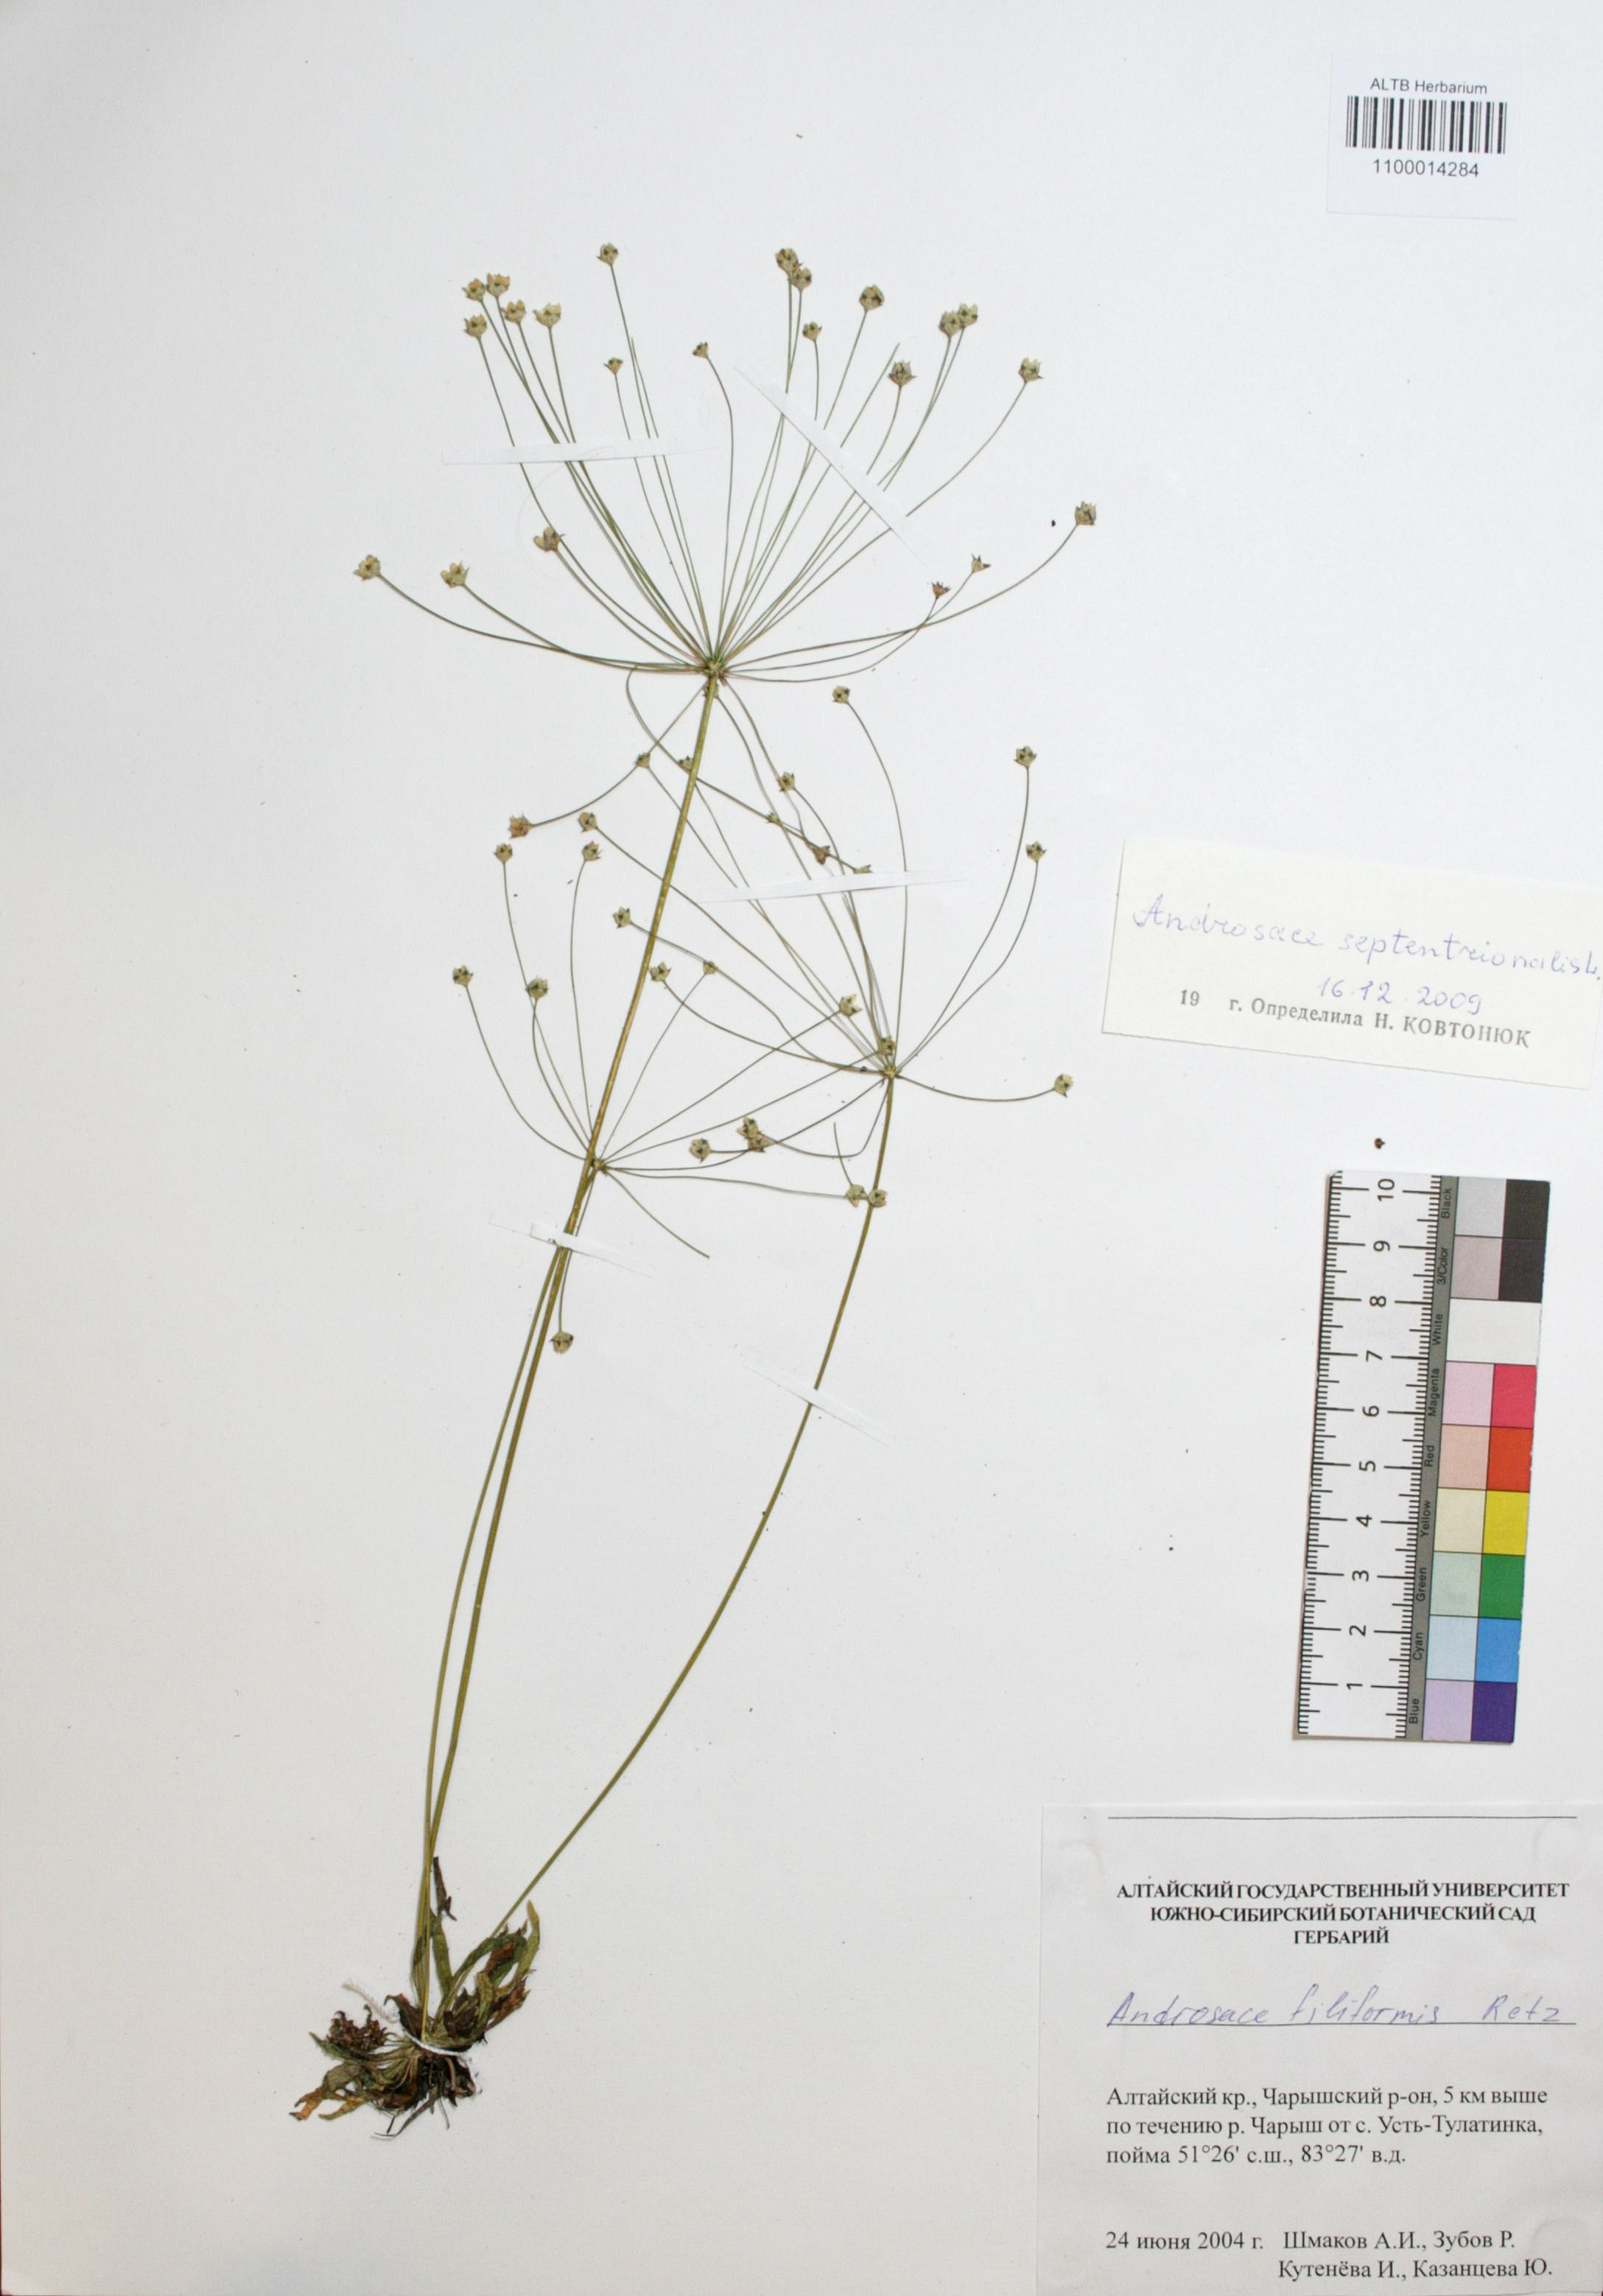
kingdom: Plantae
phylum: Tracheophyta
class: Magnoliopsida
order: Ericales
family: Primulaceae
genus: Androsace
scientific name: Androsace septentrionalis
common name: Hairy northern fairy-candelabra
